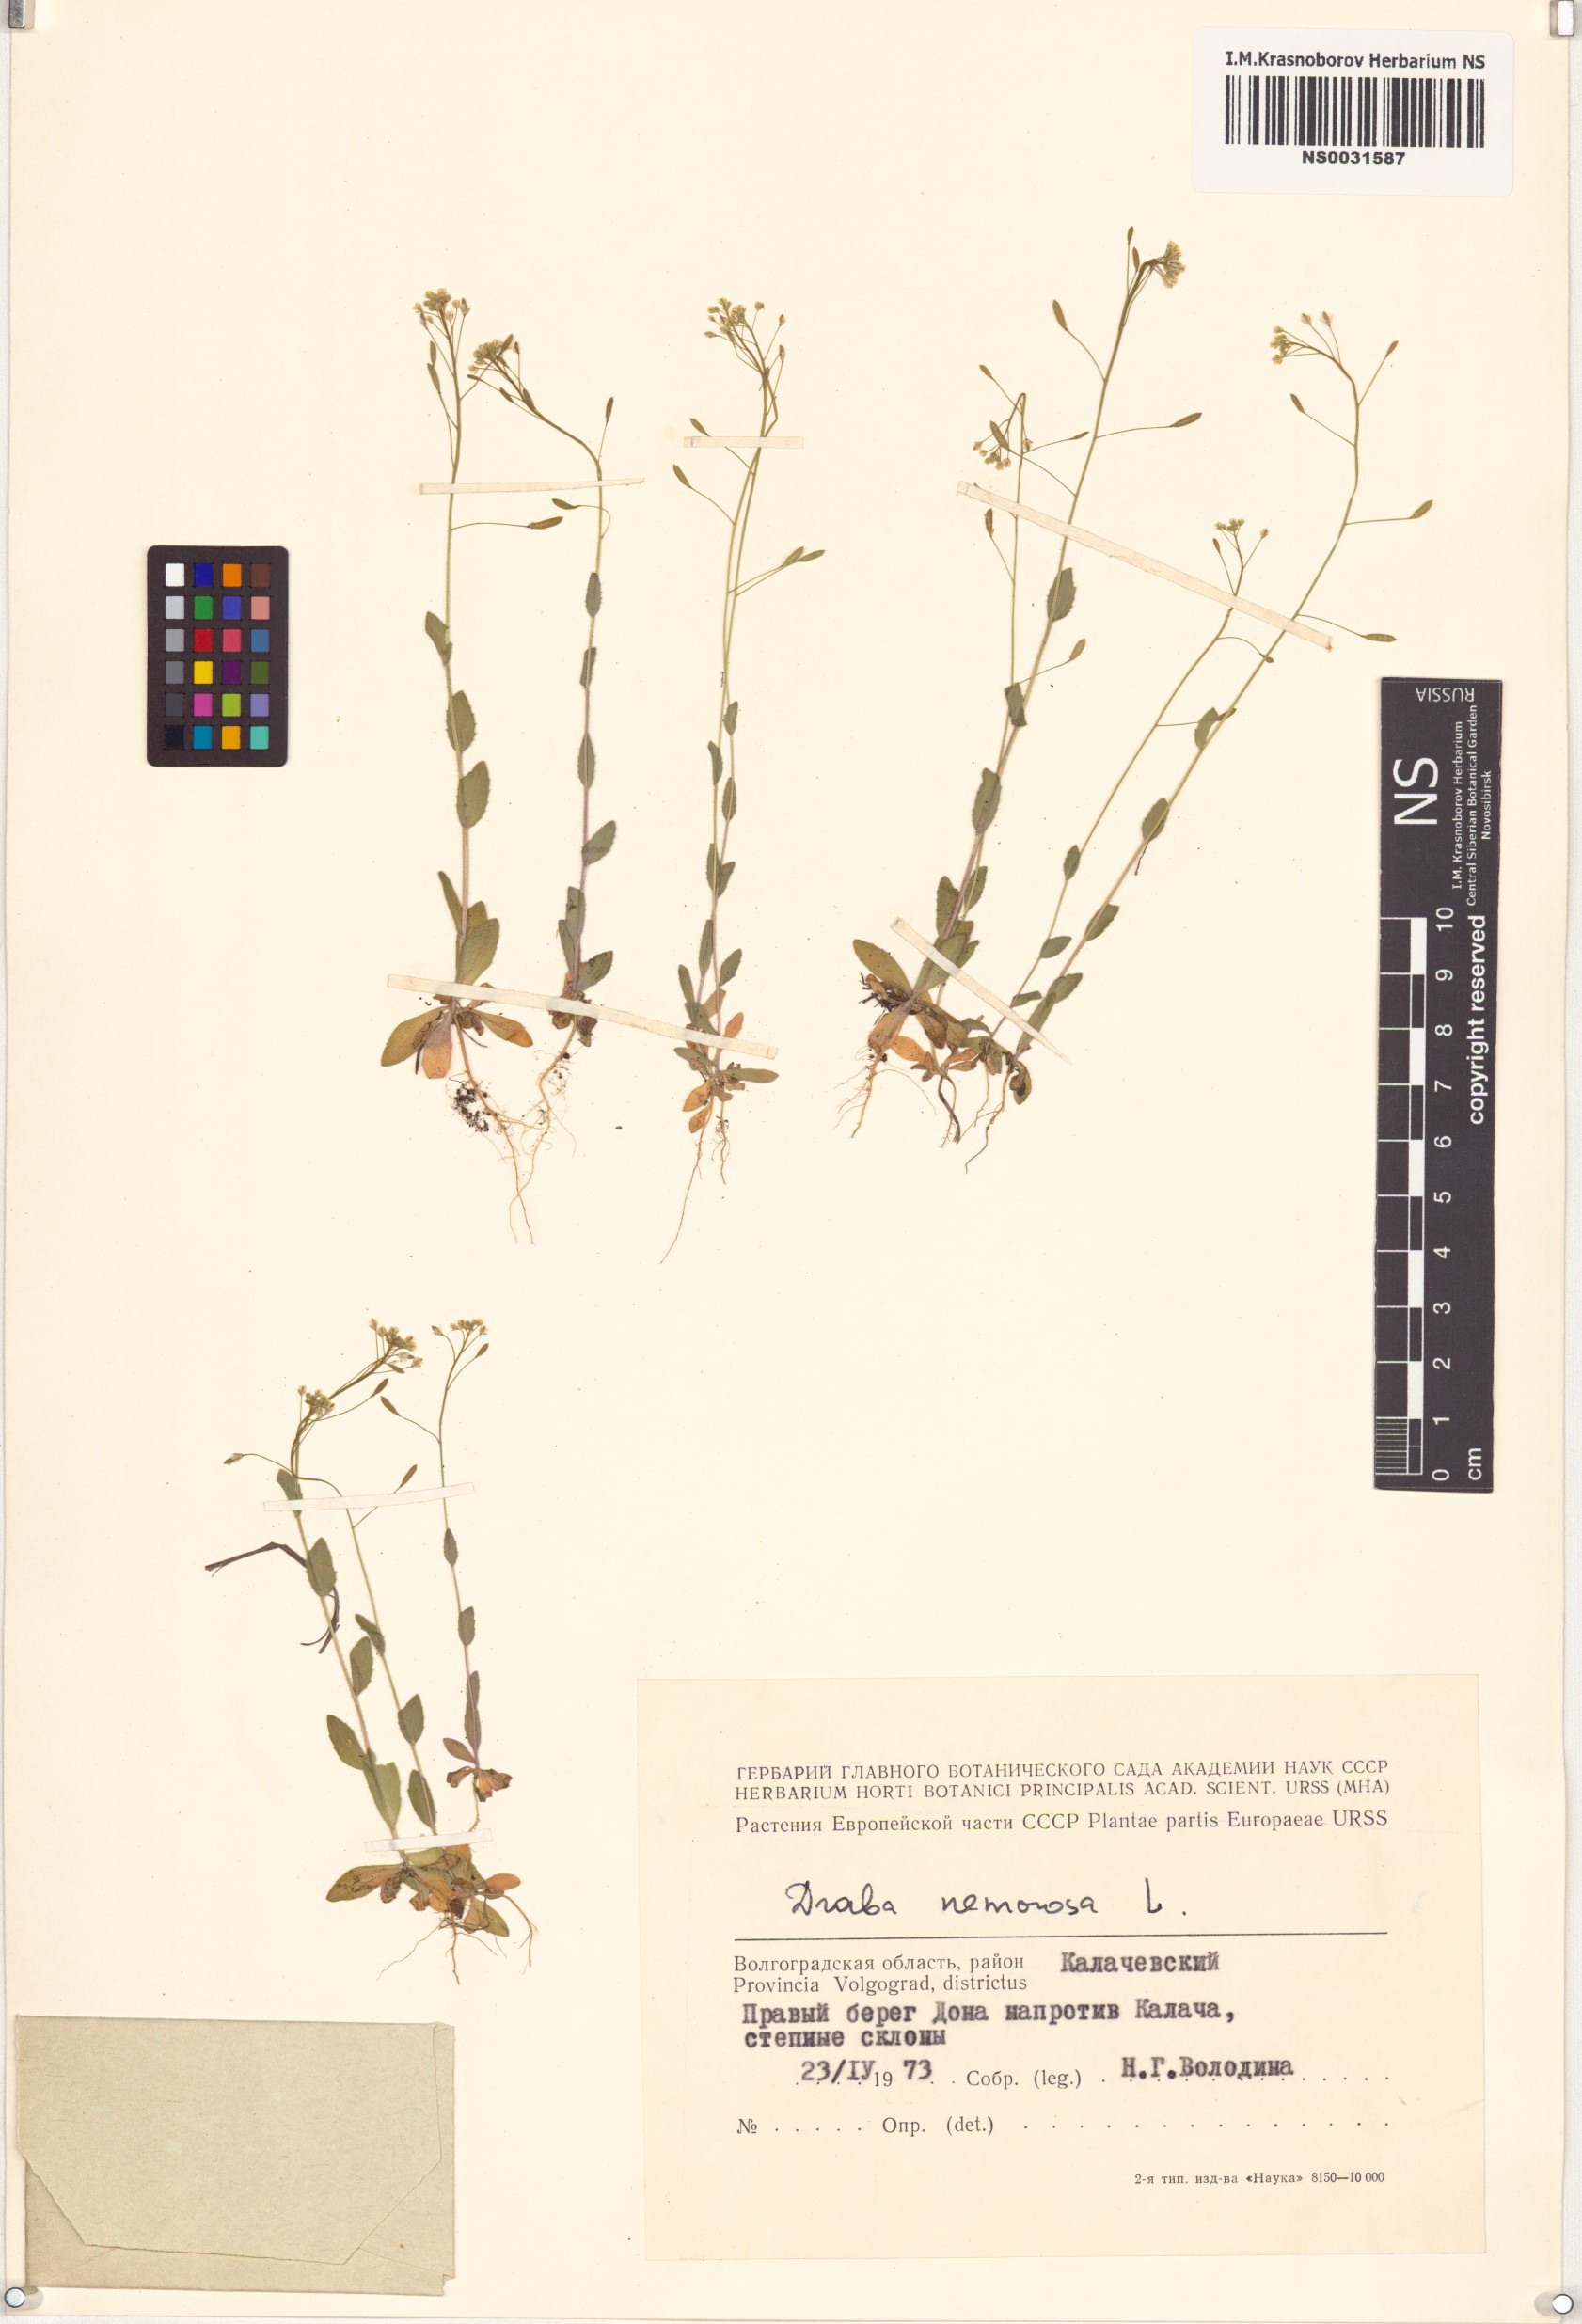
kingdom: Plantae
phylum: Tracheophyta
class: Magnoliopsida
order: Brassicales
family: Brassicaceae
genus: Draba
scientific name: Draba nemorosa
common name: Wood whitlow-grass
